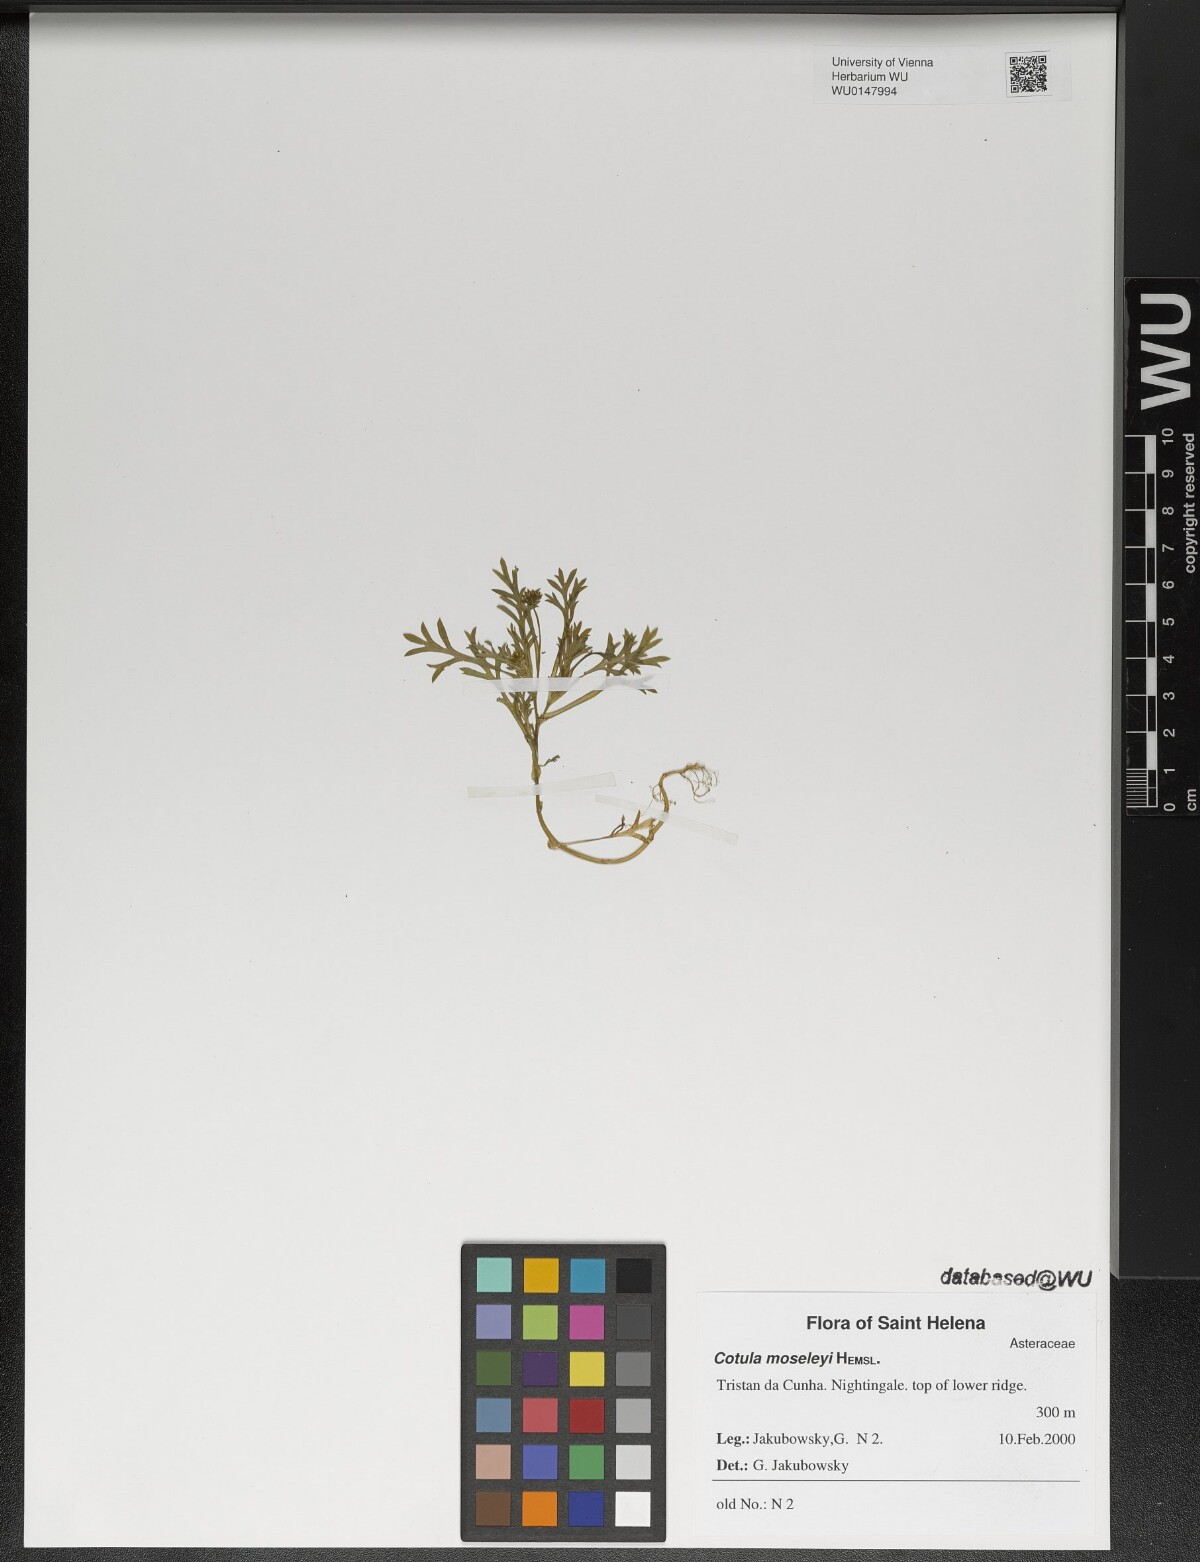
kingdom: Plantae
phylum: Tracheophyta
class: Magnoliopsida
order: Asterales
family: Asteraceae
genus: Cotula
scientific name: Cotula moseleyi
